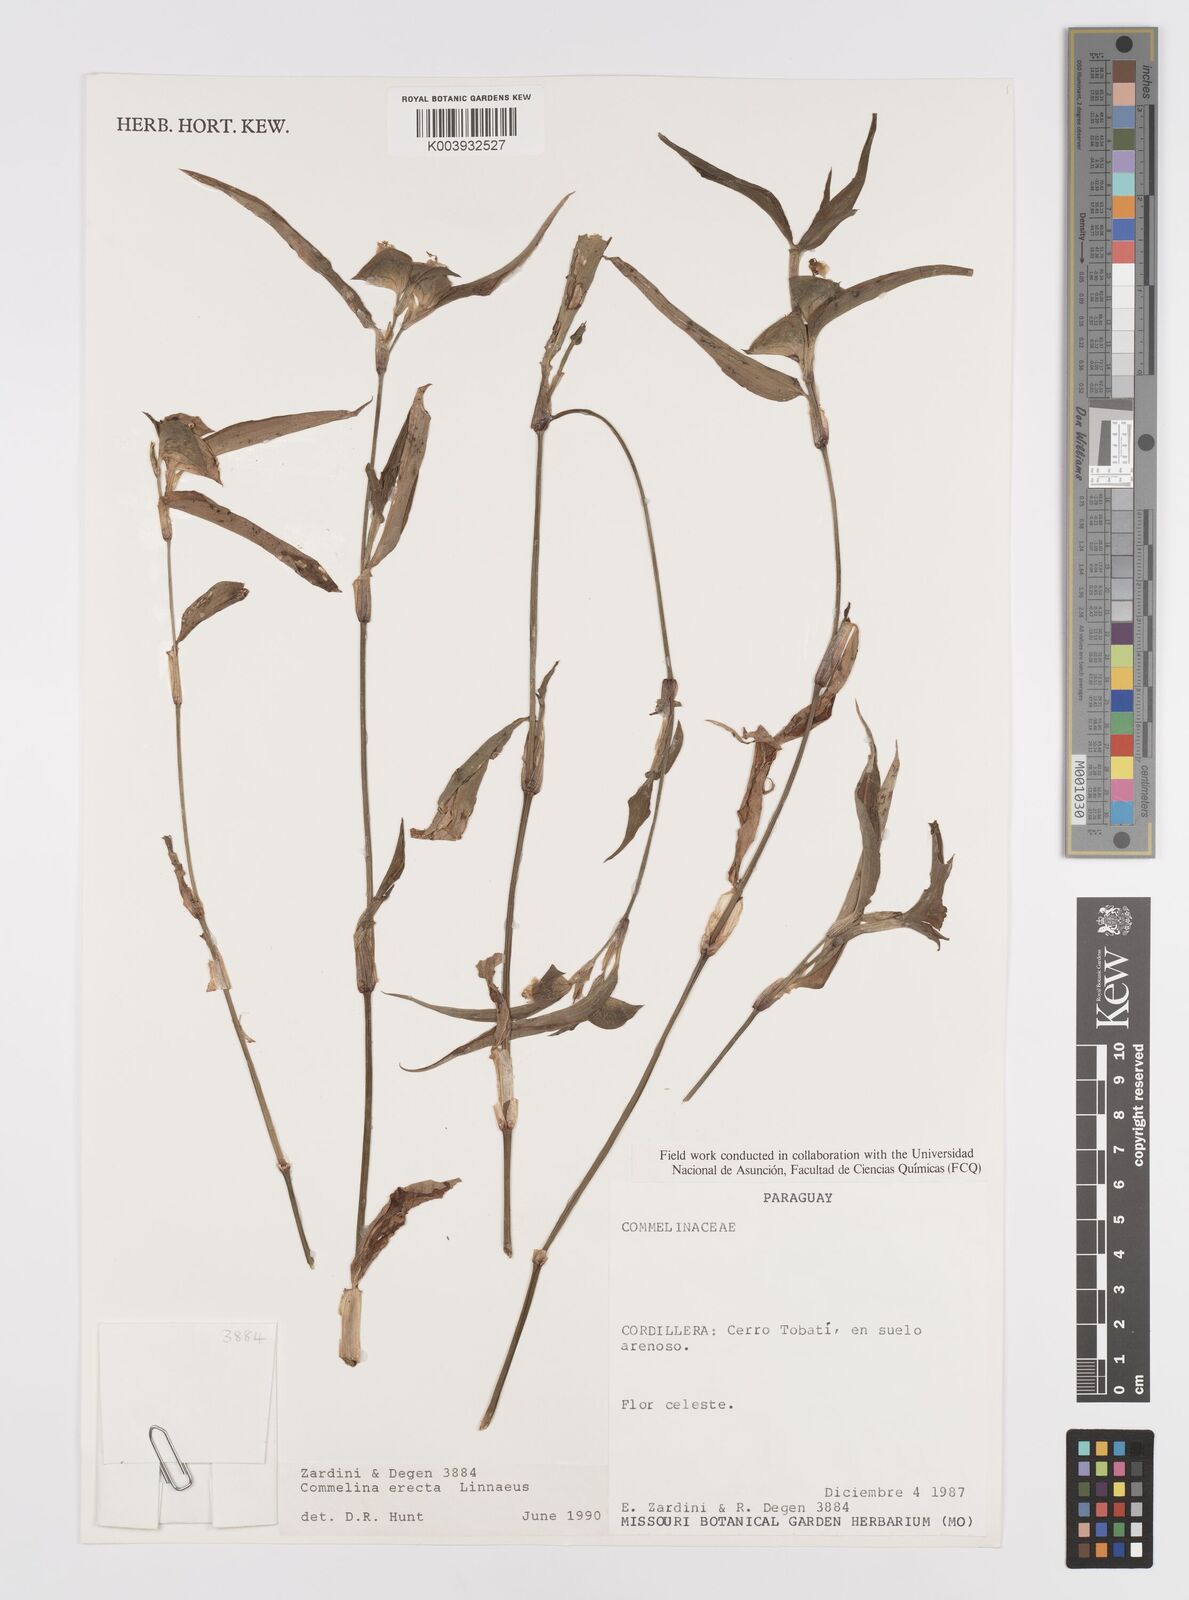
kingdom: Plantae
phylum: Tracheophyta
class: Liliopsida
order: Commelinales
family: Commelinaceae
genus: Commelina
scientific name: Commelina erecta
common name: Blousel blommetjie
